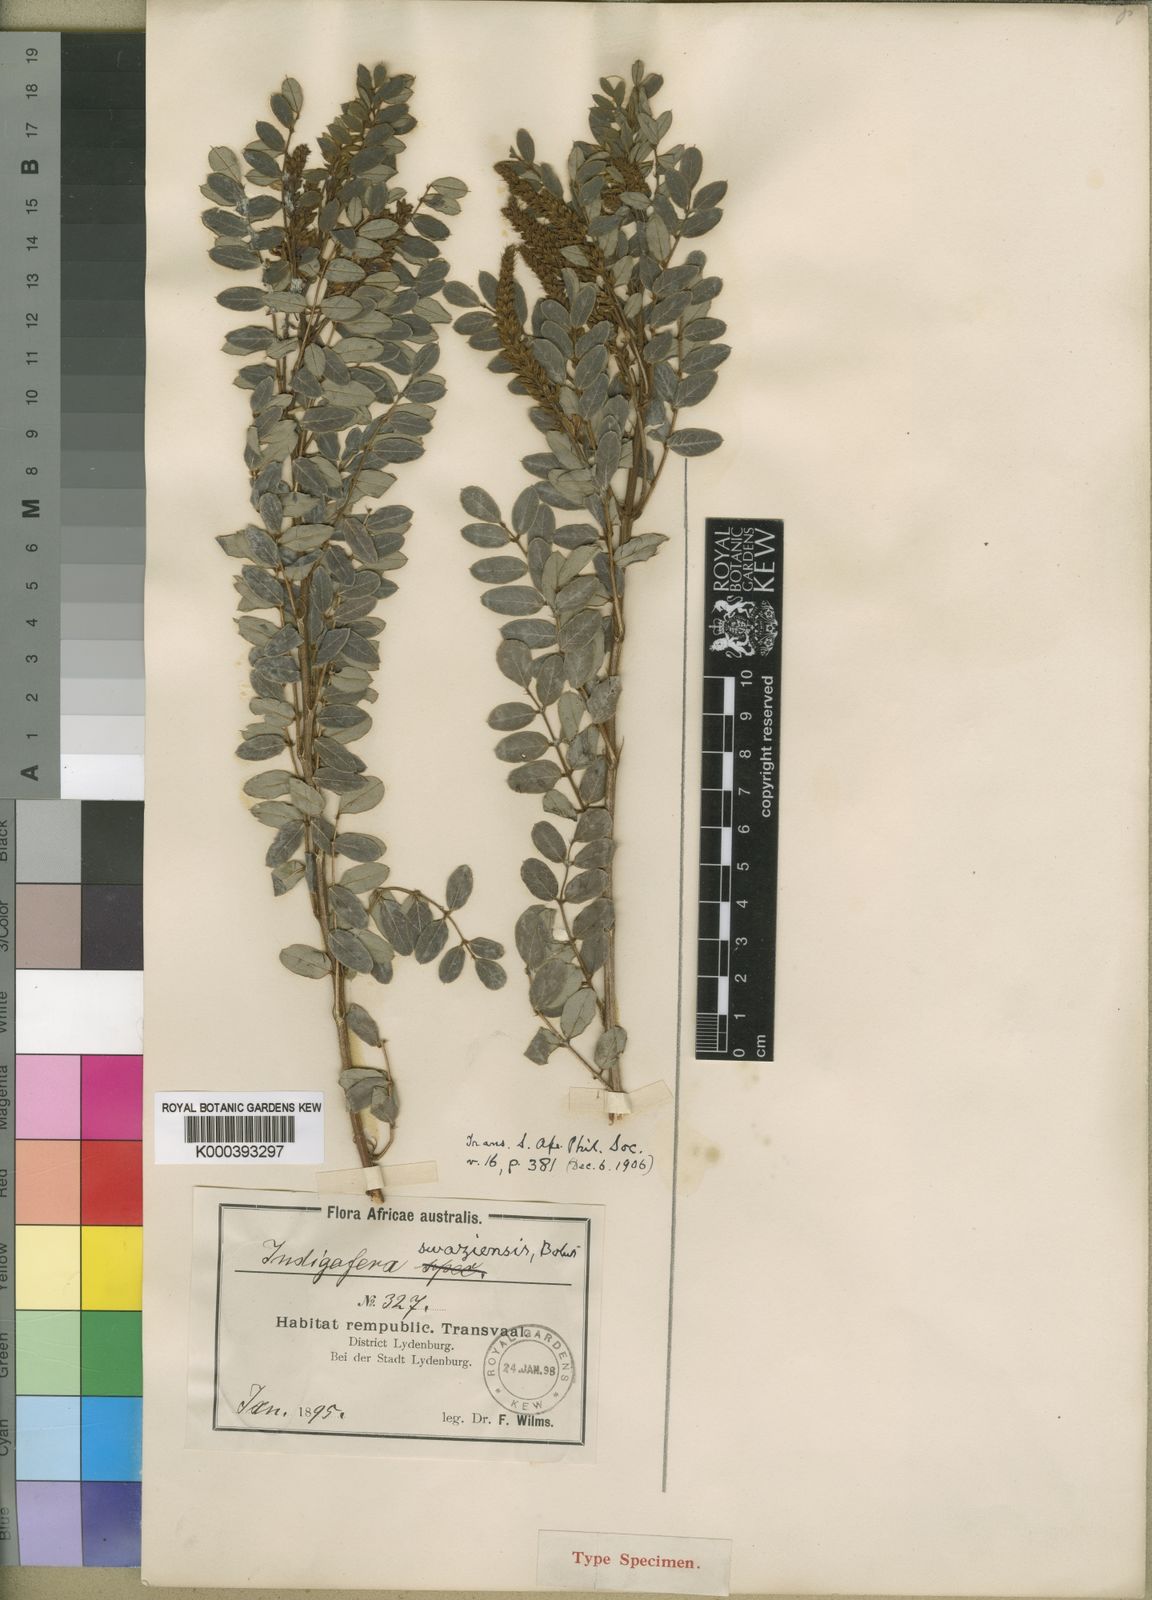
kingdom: Plantae
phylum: Tracheophyta
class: Magnoliopsida
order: Fabales
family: Fabaceae
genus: Indigofera
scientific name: Indigofera swaziensis
